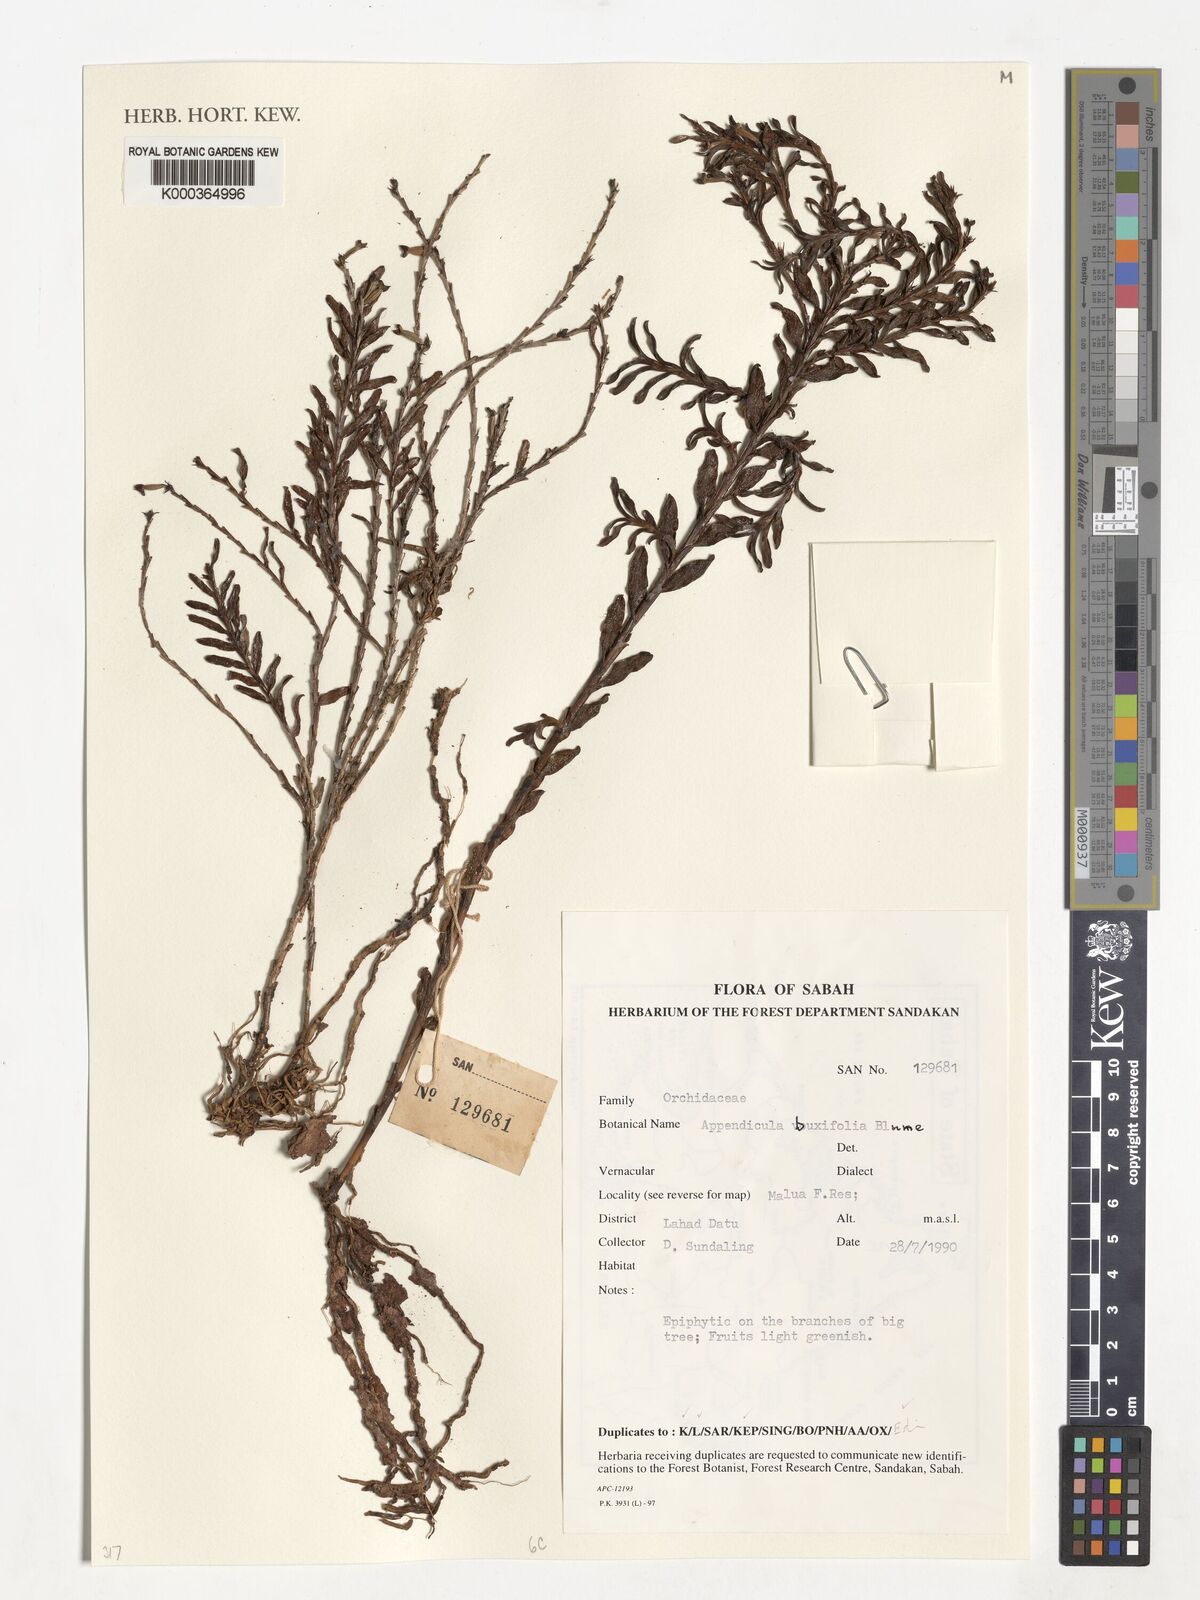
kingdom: Plantae
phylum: Tracheophyta
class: Liliopsida
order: Asparagales
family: Orchidaceae
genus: Appendicula
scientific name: Appendicula buxifolia
